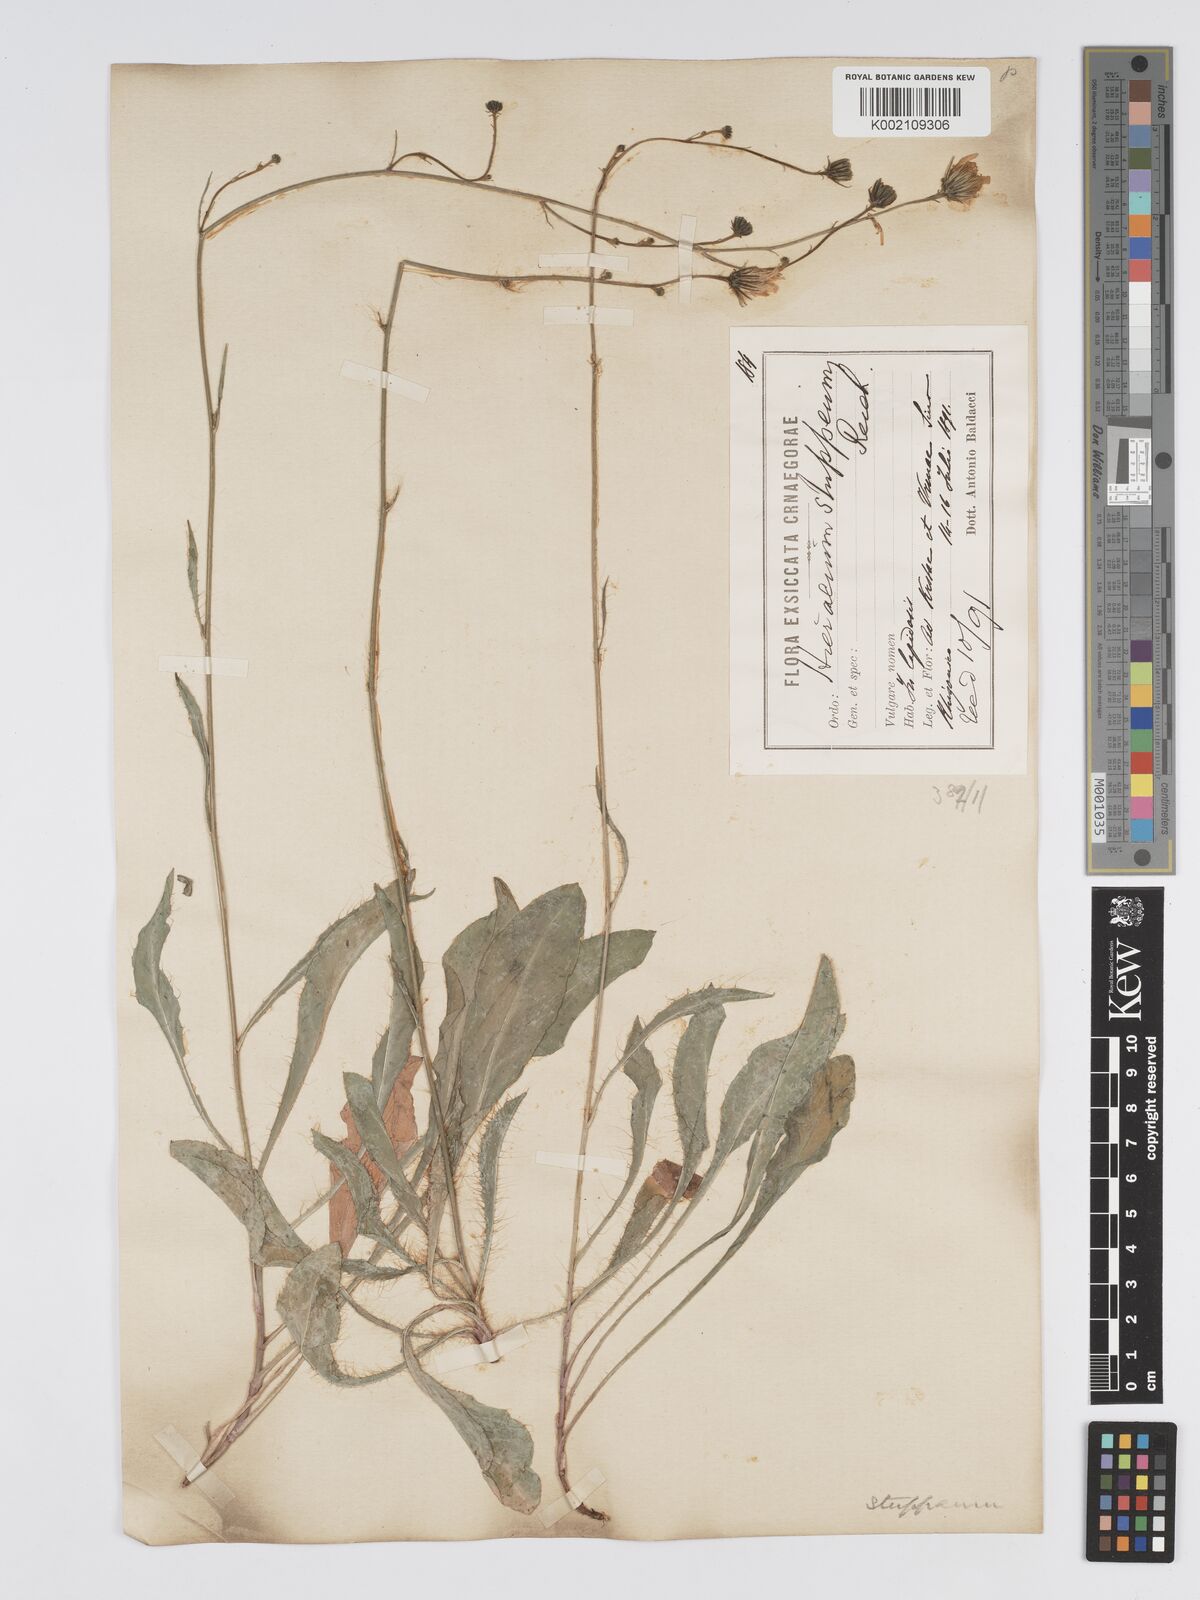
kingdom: Plantae
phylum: Tracheophyta
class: Magnoliopsida
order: Asterales
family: Asteraceae
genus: Hieracium
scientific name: Hieracium heterogynum
